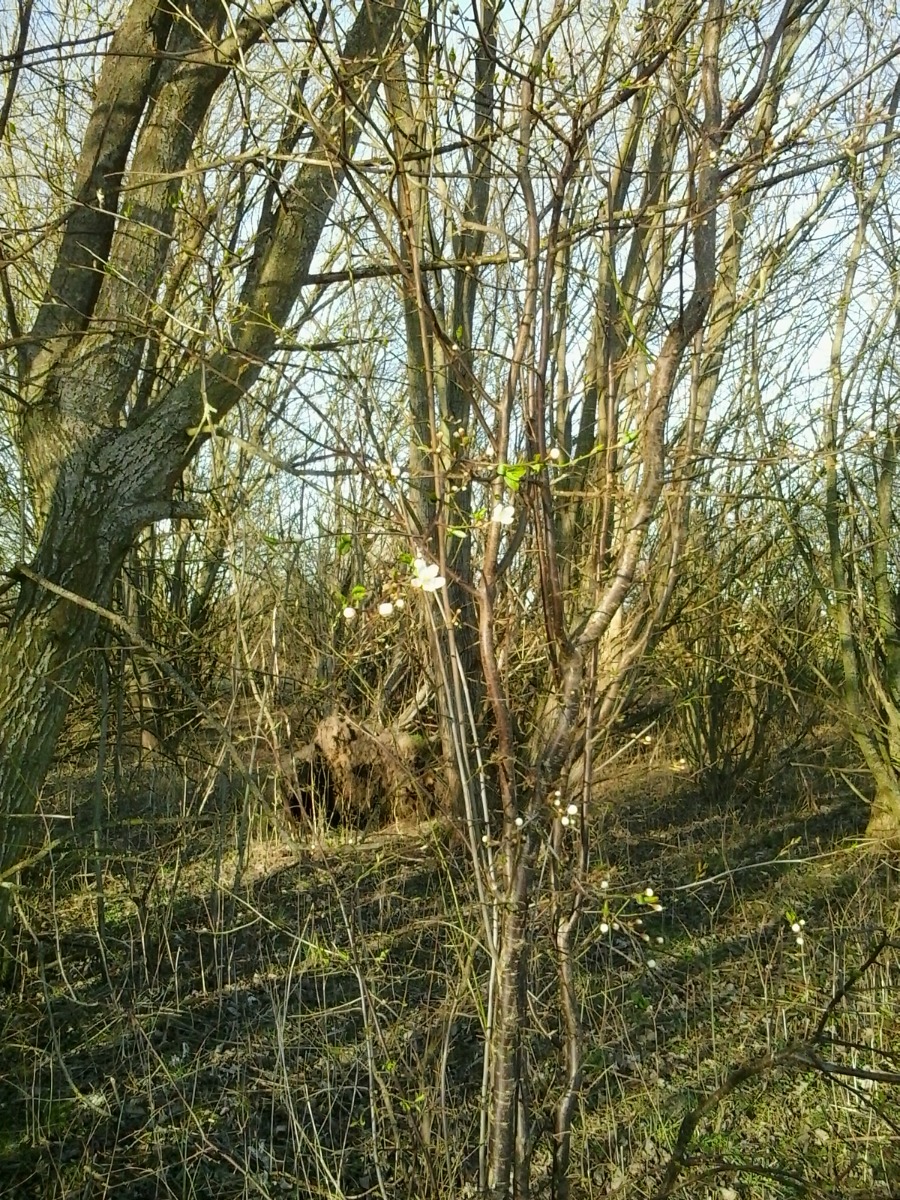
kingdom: Plantae
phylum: Tracheophyta
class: Magnoliopsida
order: Rosales
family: Rosaceae
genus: Prunus
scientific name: Prunus cerasifera
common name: Mirabel
